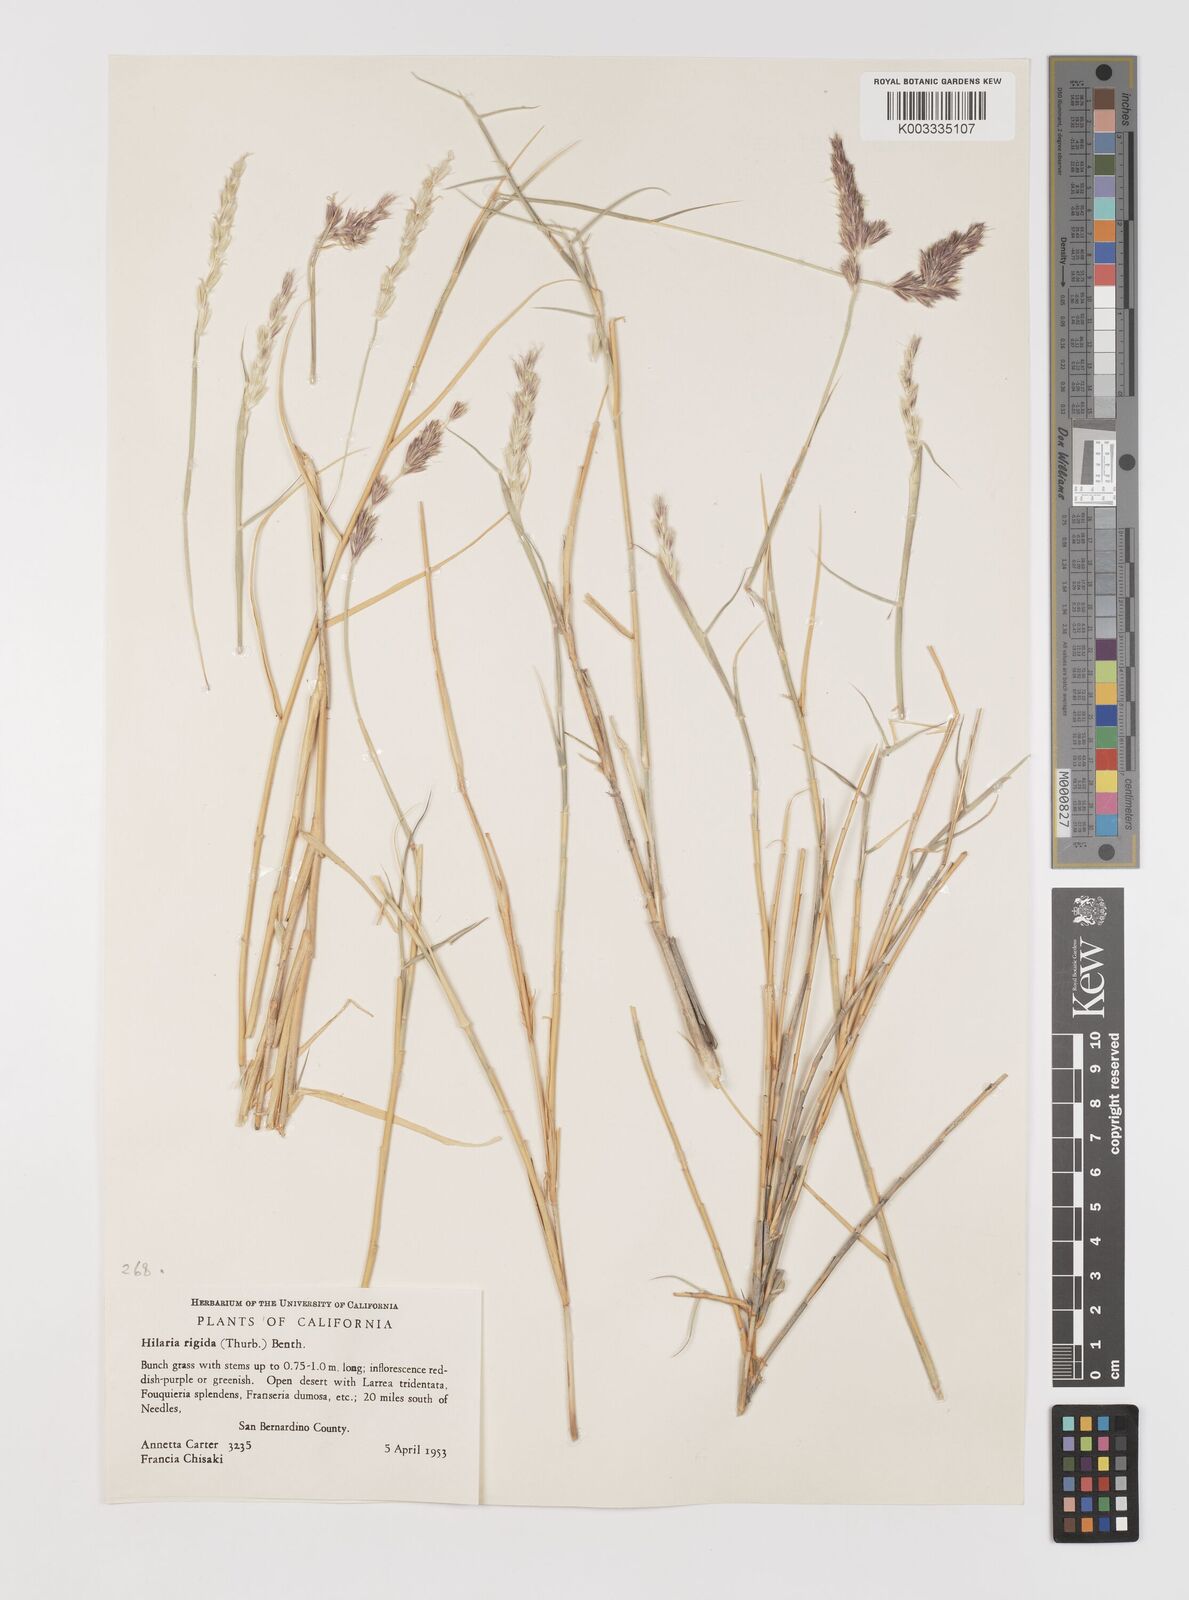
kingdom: Plantae
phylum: Tracheophyta
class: Liliopsida
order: Poales
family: Poaceae
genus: Hilaria
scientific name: Hilaria rigida
